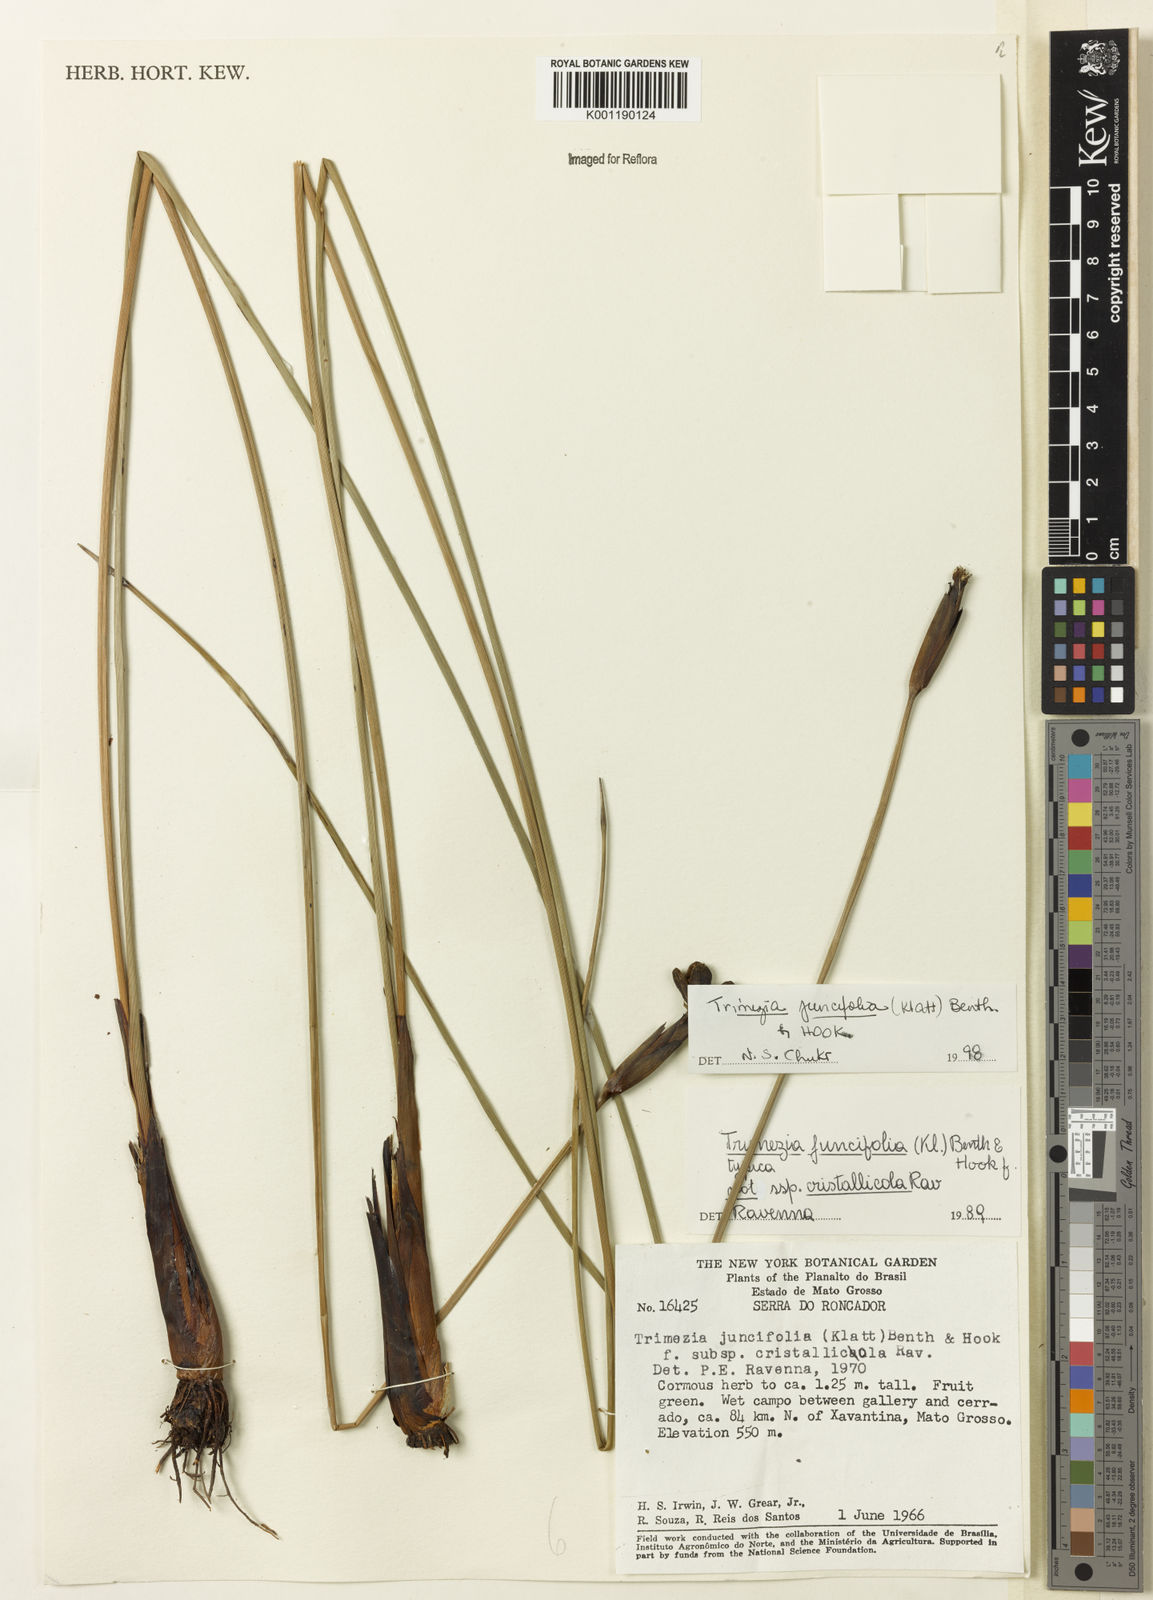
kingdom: Plantae
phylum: Tracheophyta
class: Liliopsida
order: Asparagales
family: Iridaceae
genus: Trimezia
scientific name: Trimezia juncifolia
